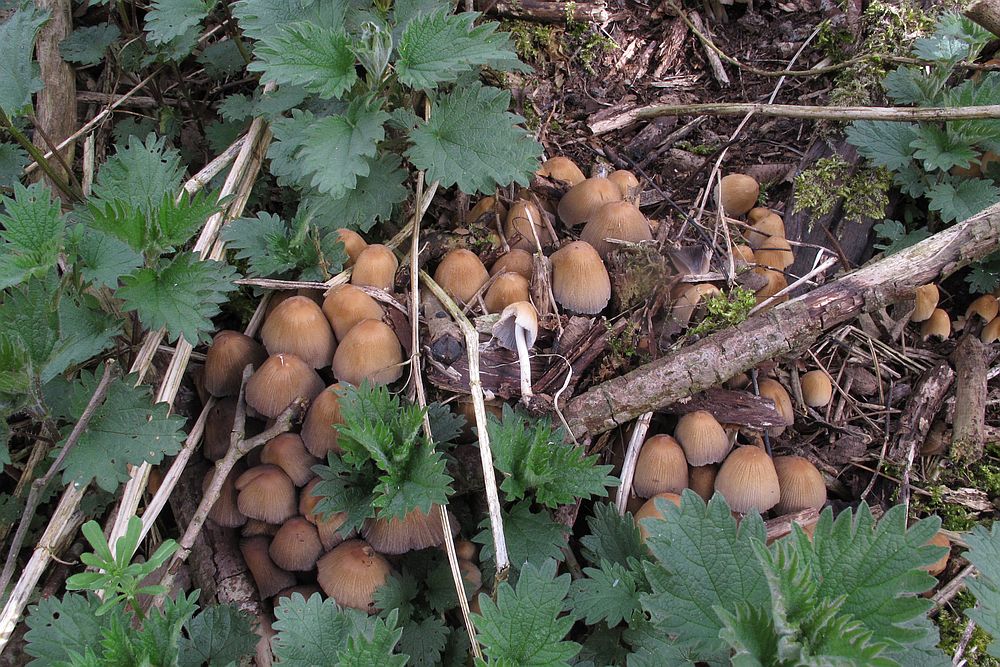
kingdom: Fungi
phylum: Basidiomycota
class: Agaricomycetes
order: Agaricales
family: Psathyrellaceae
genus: Coprinellus
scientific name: Coprinellus micaceus
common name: glimmer-blækhat
